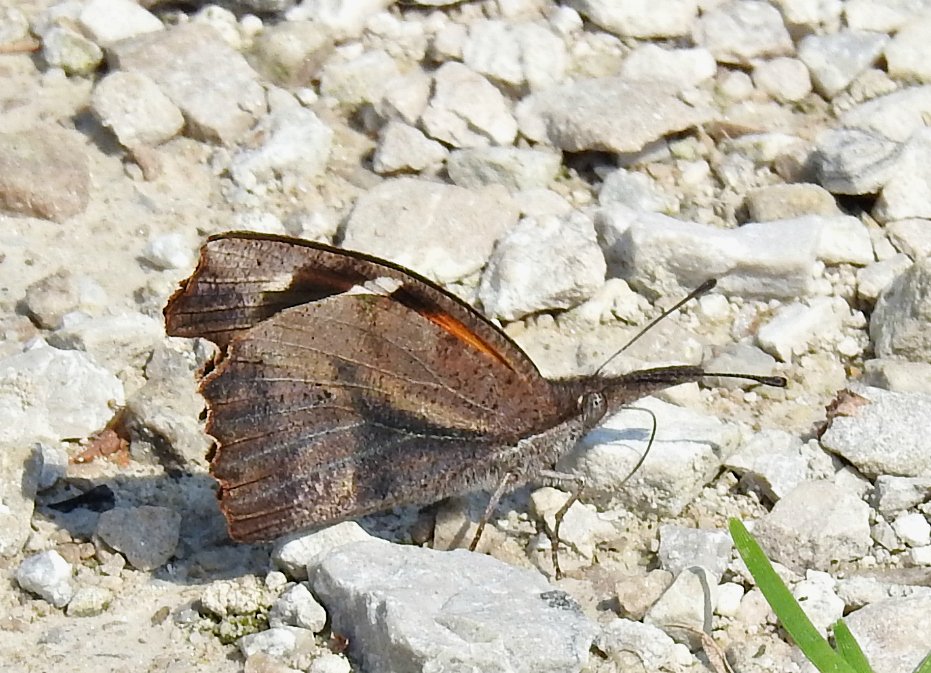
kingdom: Animalia
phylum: Arthropoda
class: Insecta
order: Lepidoptera
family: Nymphalidae
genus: Libytheana
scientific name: Libytheana carinenta
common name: American Snout
